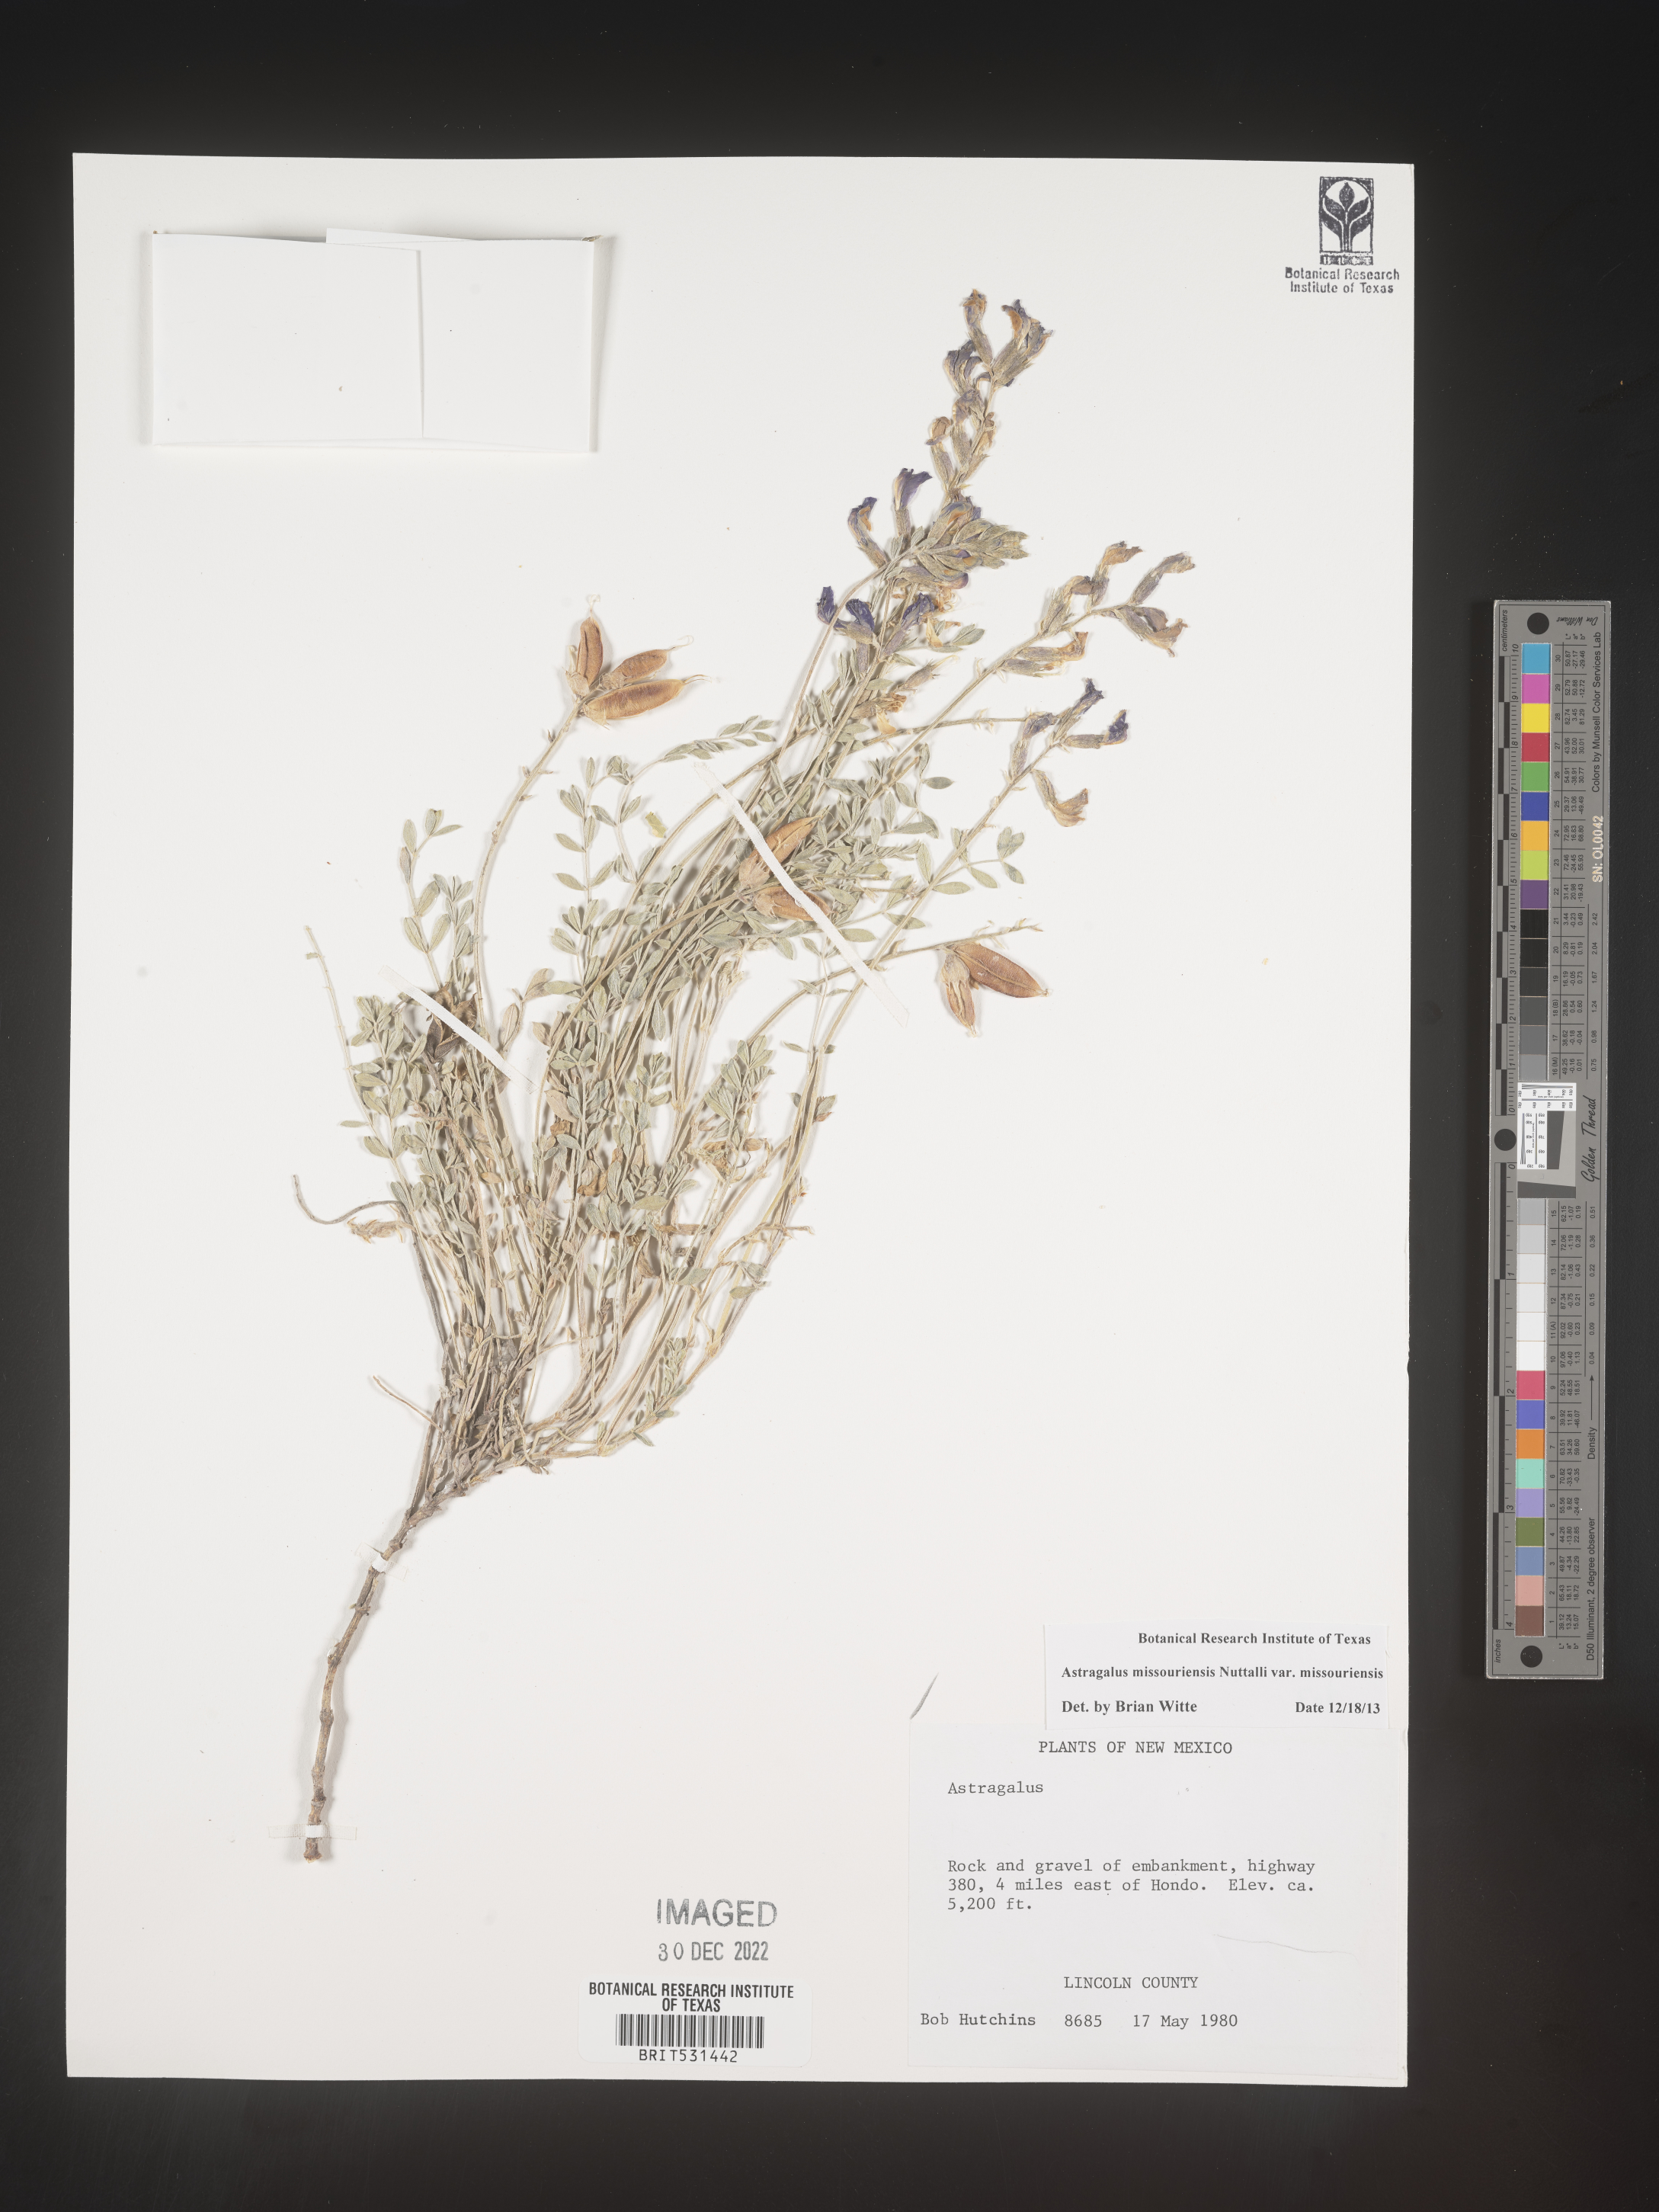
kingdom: Plantae
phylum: Tracheophyta
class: Magnoliopsida
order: Fabales
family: Fabaceae
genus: Astragalus
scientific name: Astragalus missouriensis
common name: Missouri milk-vetch
